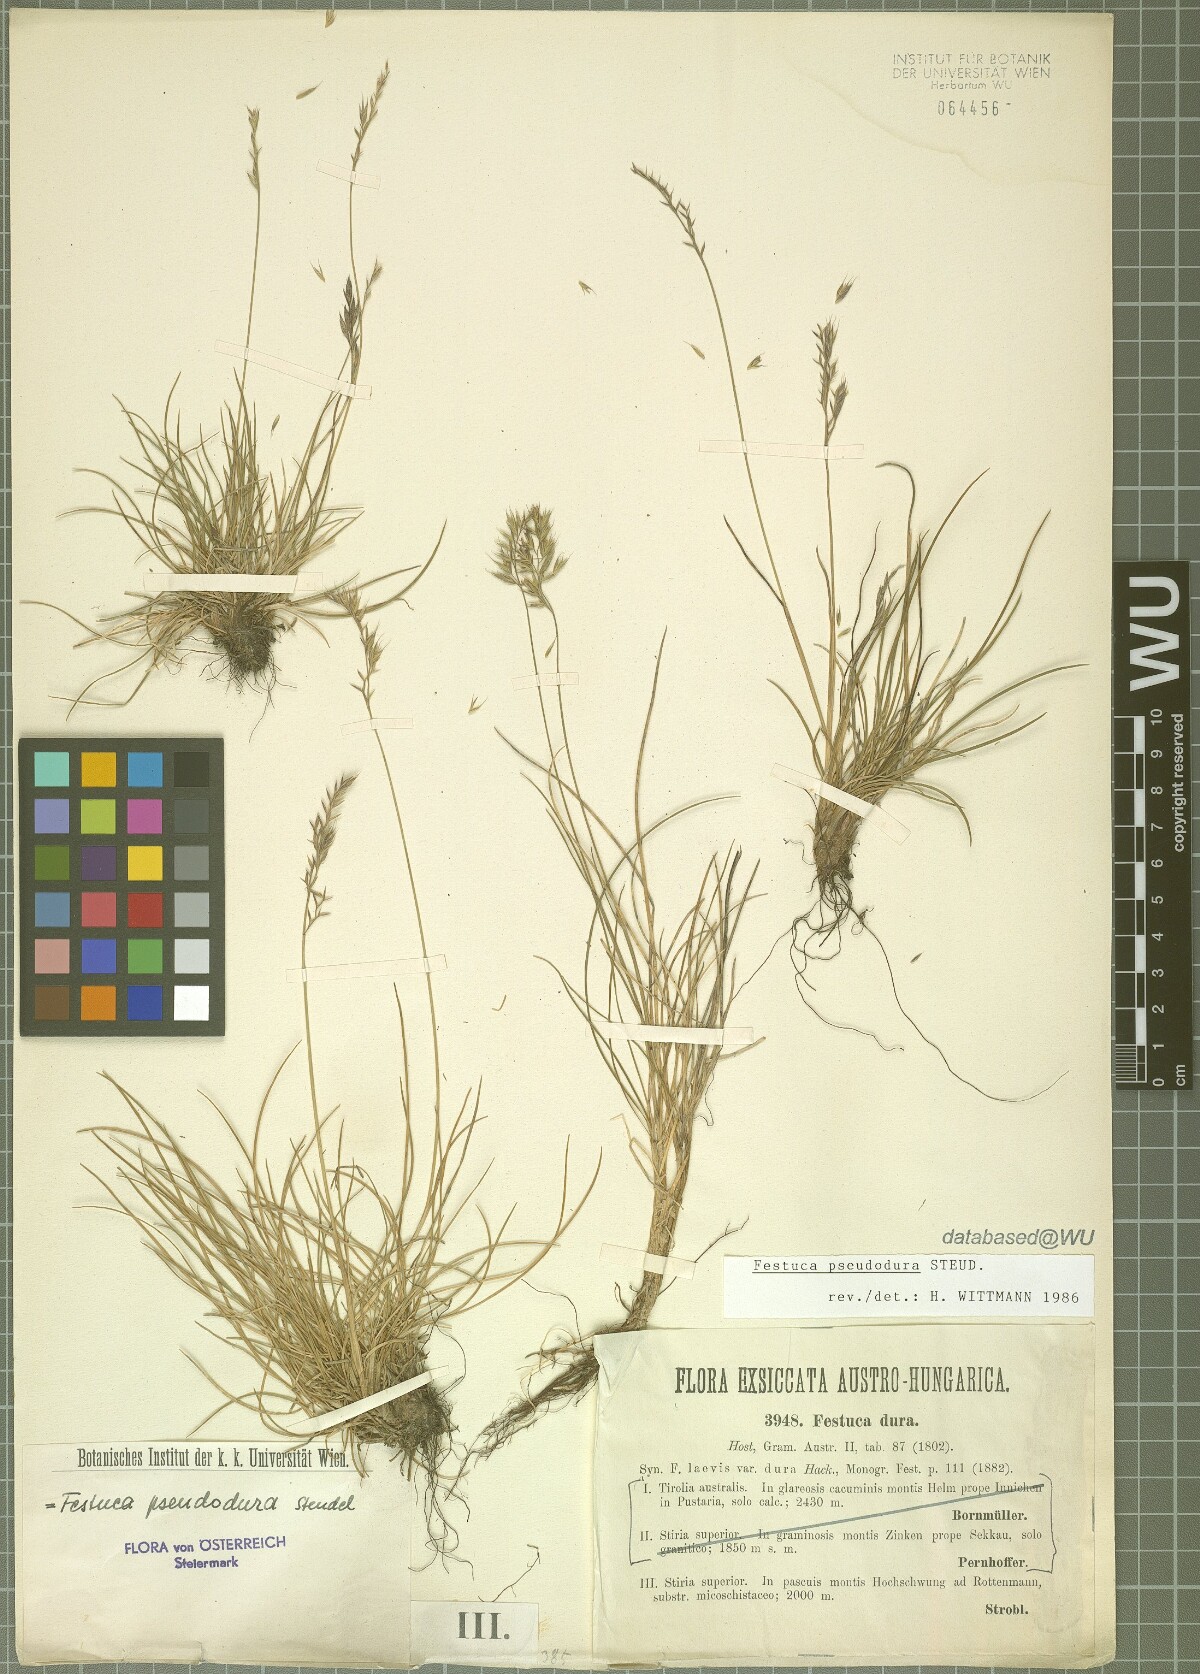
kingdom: Plantae
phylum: Tracheophyta
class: Liliopsida
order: Poales
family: Poaceae
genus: Festuca
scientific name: Festuca pseudodura
